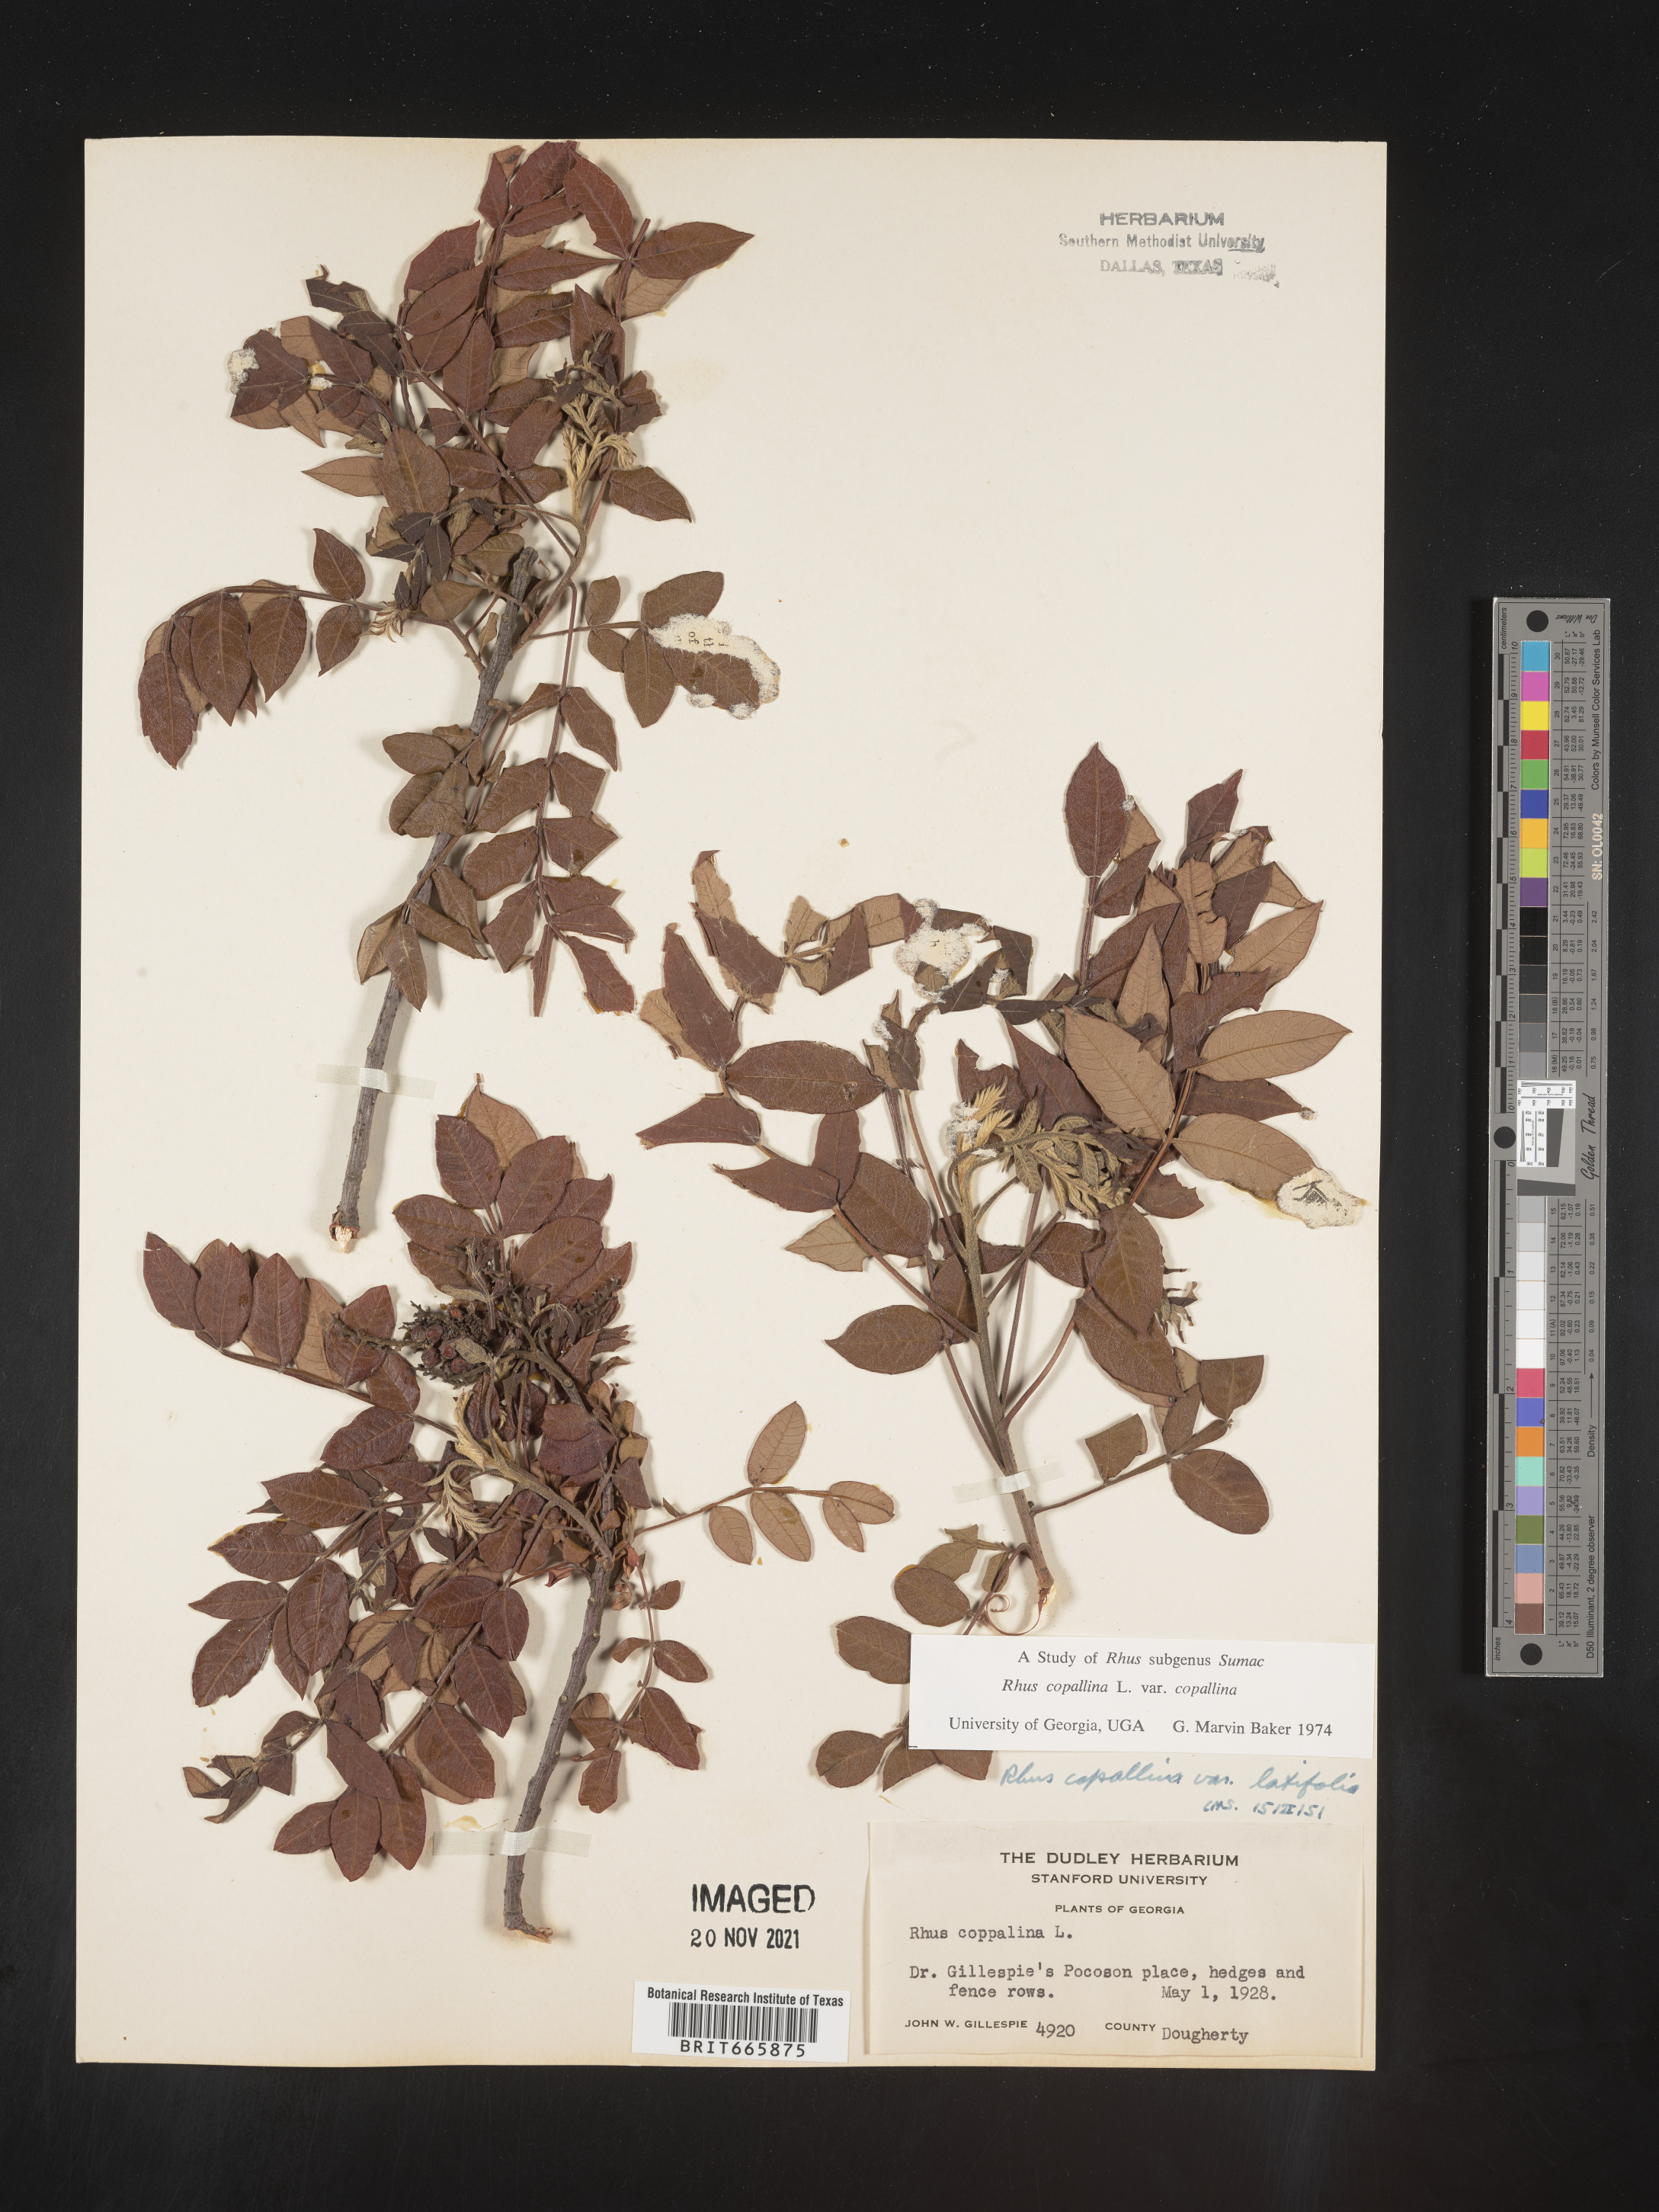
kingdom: Plantae
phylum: Tracheophyta
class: Magnoliopsida
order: Sapindales
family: Anacardiaceae
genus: Rhus
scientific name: Rhus copallina
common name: Shining sumac
